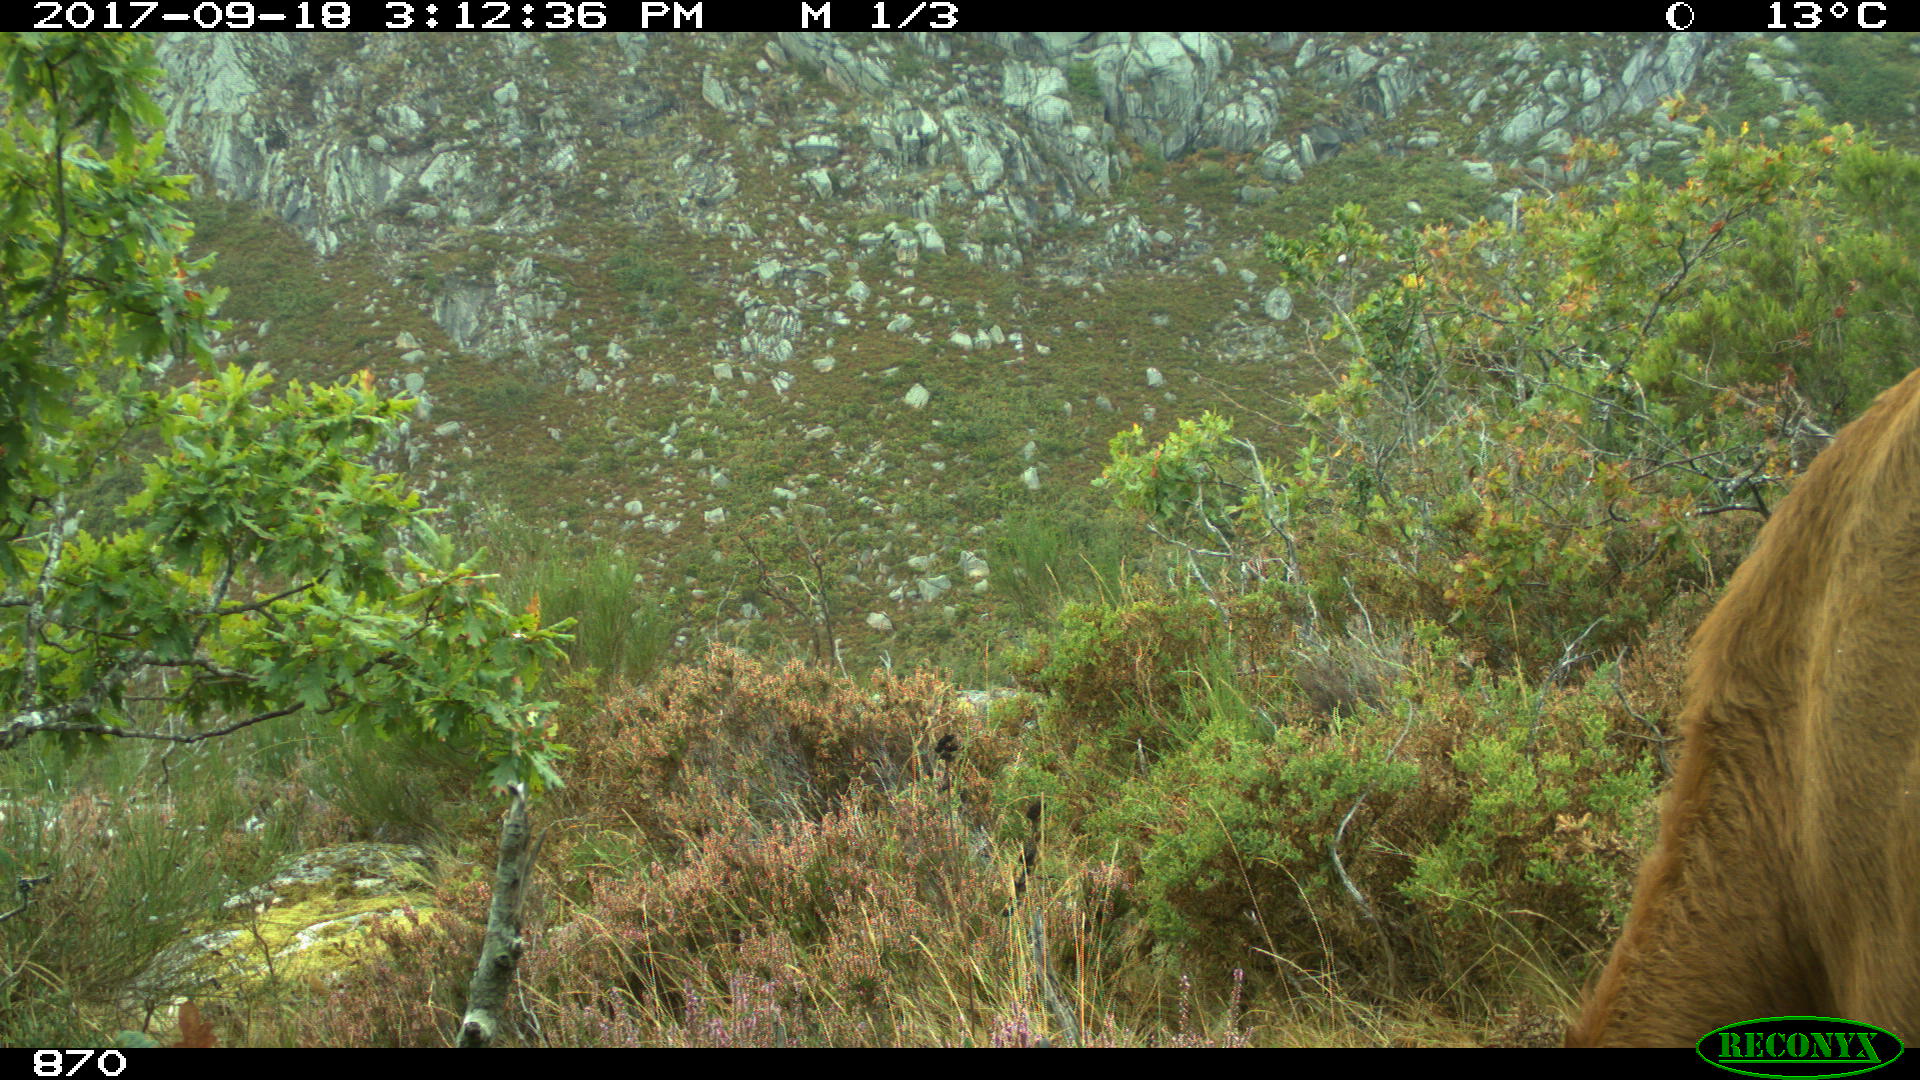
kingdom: Animalia
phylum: Chordata
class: Mammalia
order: Artiodactyla
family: Bovidae
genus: Bos
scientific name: Bos taurus
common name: Domesticated cattle
